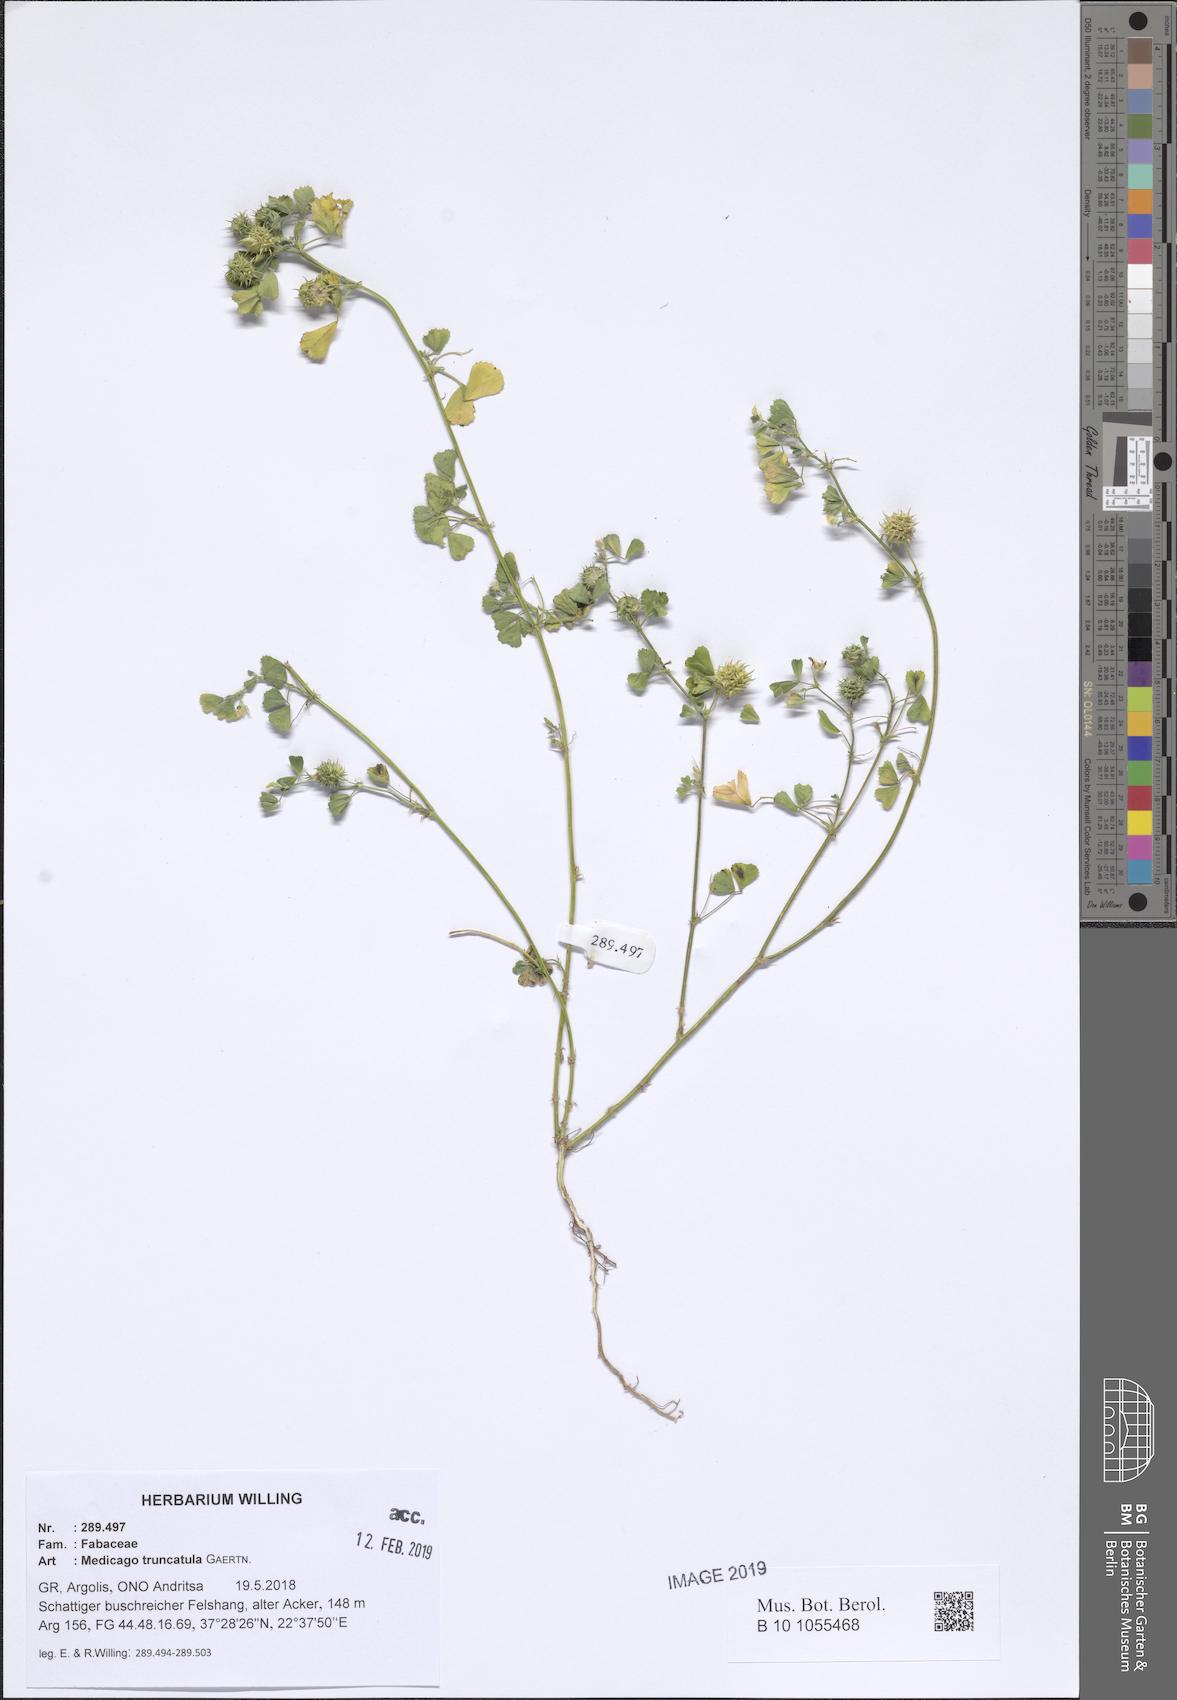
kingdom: Plantae
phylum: Tracheophyta
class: Magnoliopsida
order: Fabales
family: Fabaceae
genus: Medicago
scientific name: Medicago truncatula
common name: Strong-spined medick
